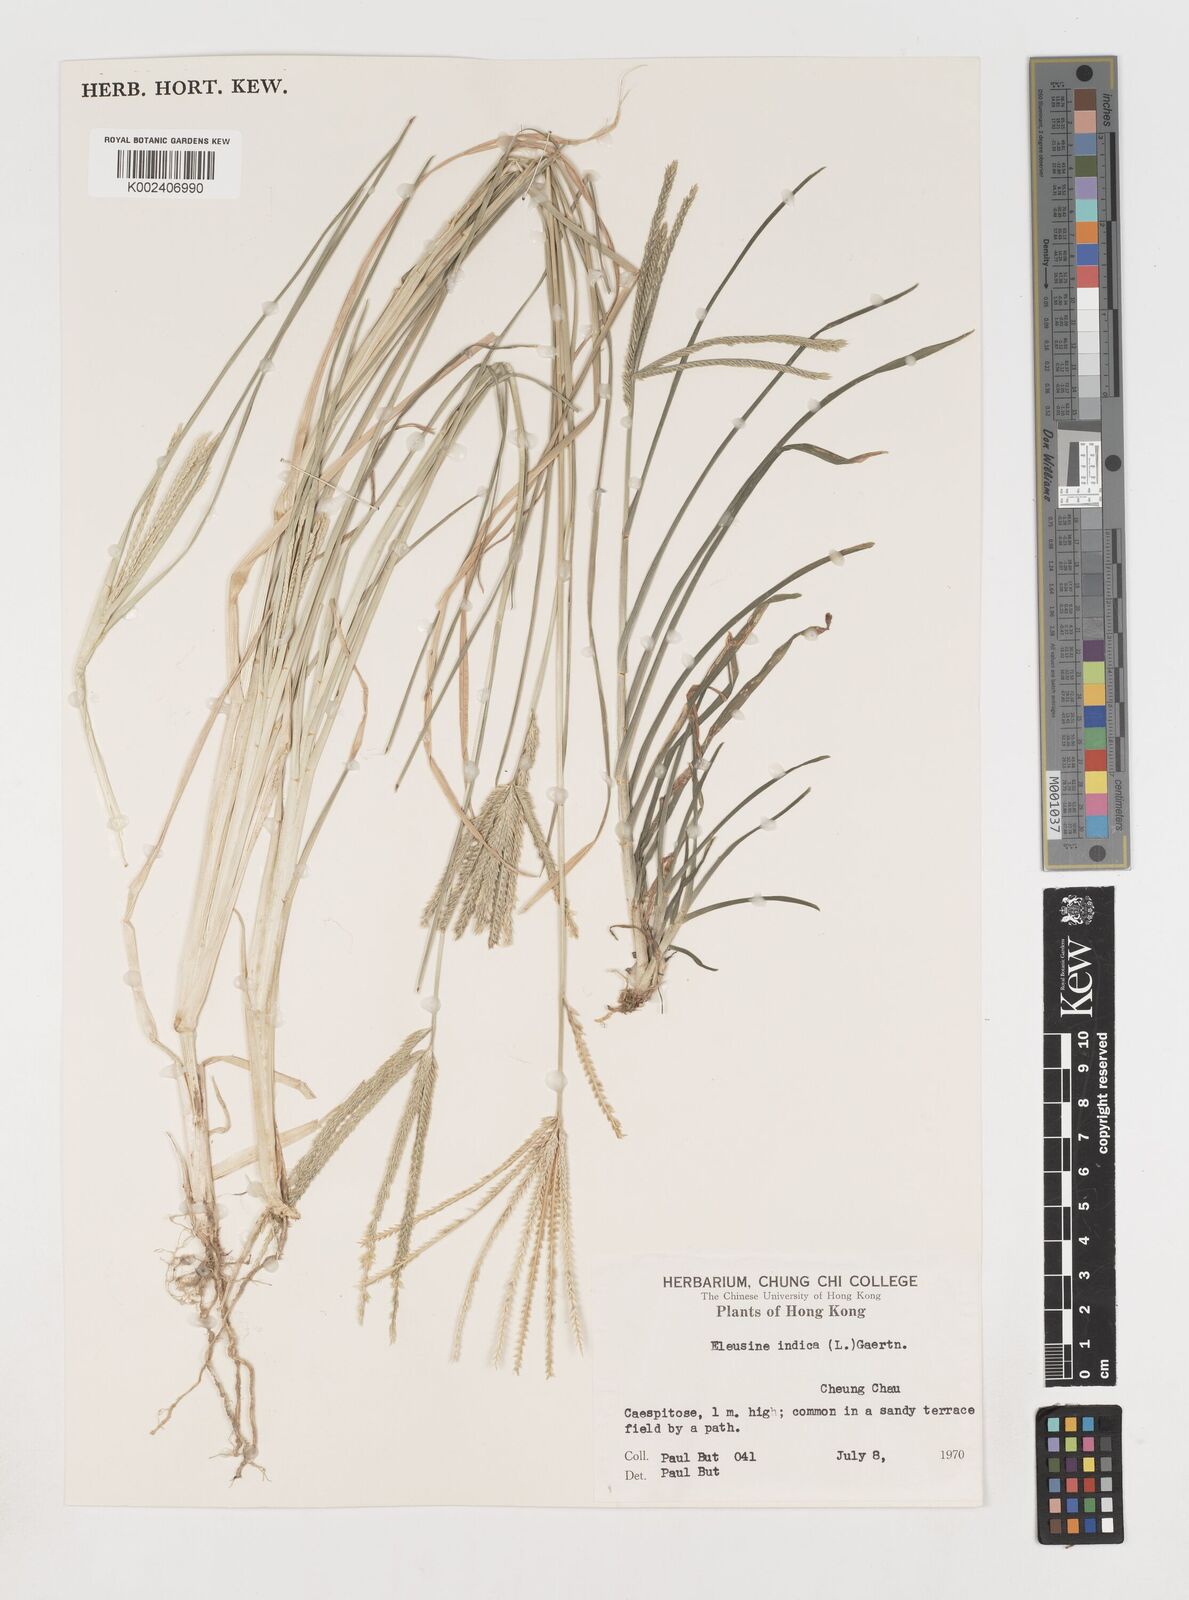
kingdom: Plantae
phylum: Tracheophyta
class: Liliopsida
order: Poales
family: Poaceae
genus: Eleusine
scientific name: Eleusine indica
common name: Yard-grass
